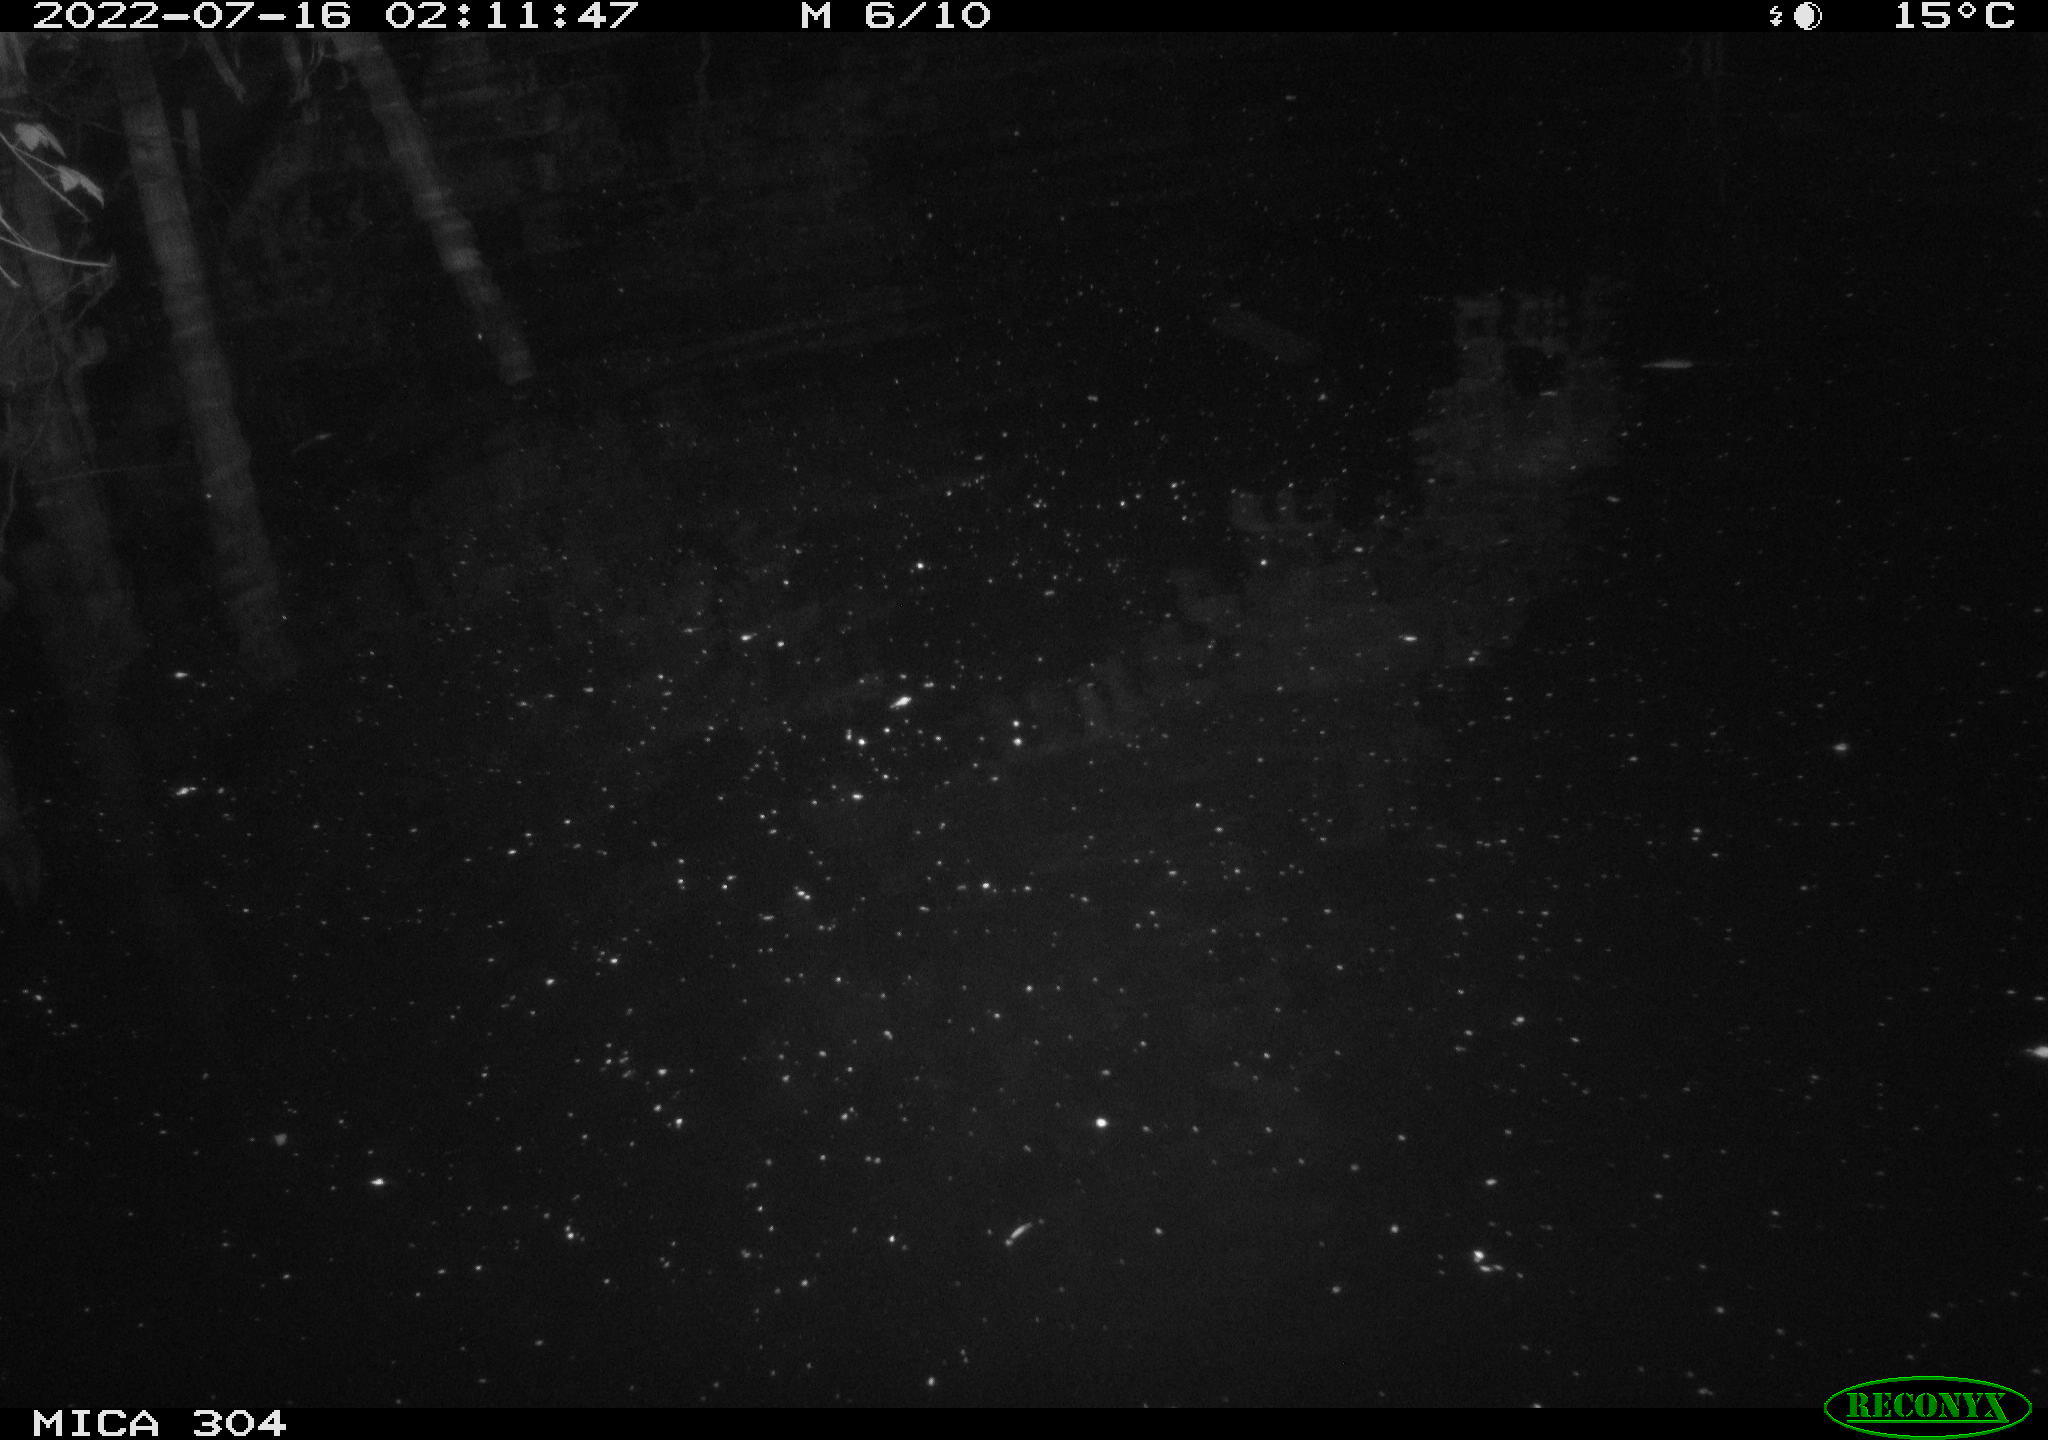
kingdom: Animalia
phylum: Chordata
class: Aves
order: Anseriformes
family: Anatidae
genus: Anas
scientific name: Anas platyrhynchos
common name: Mallard
